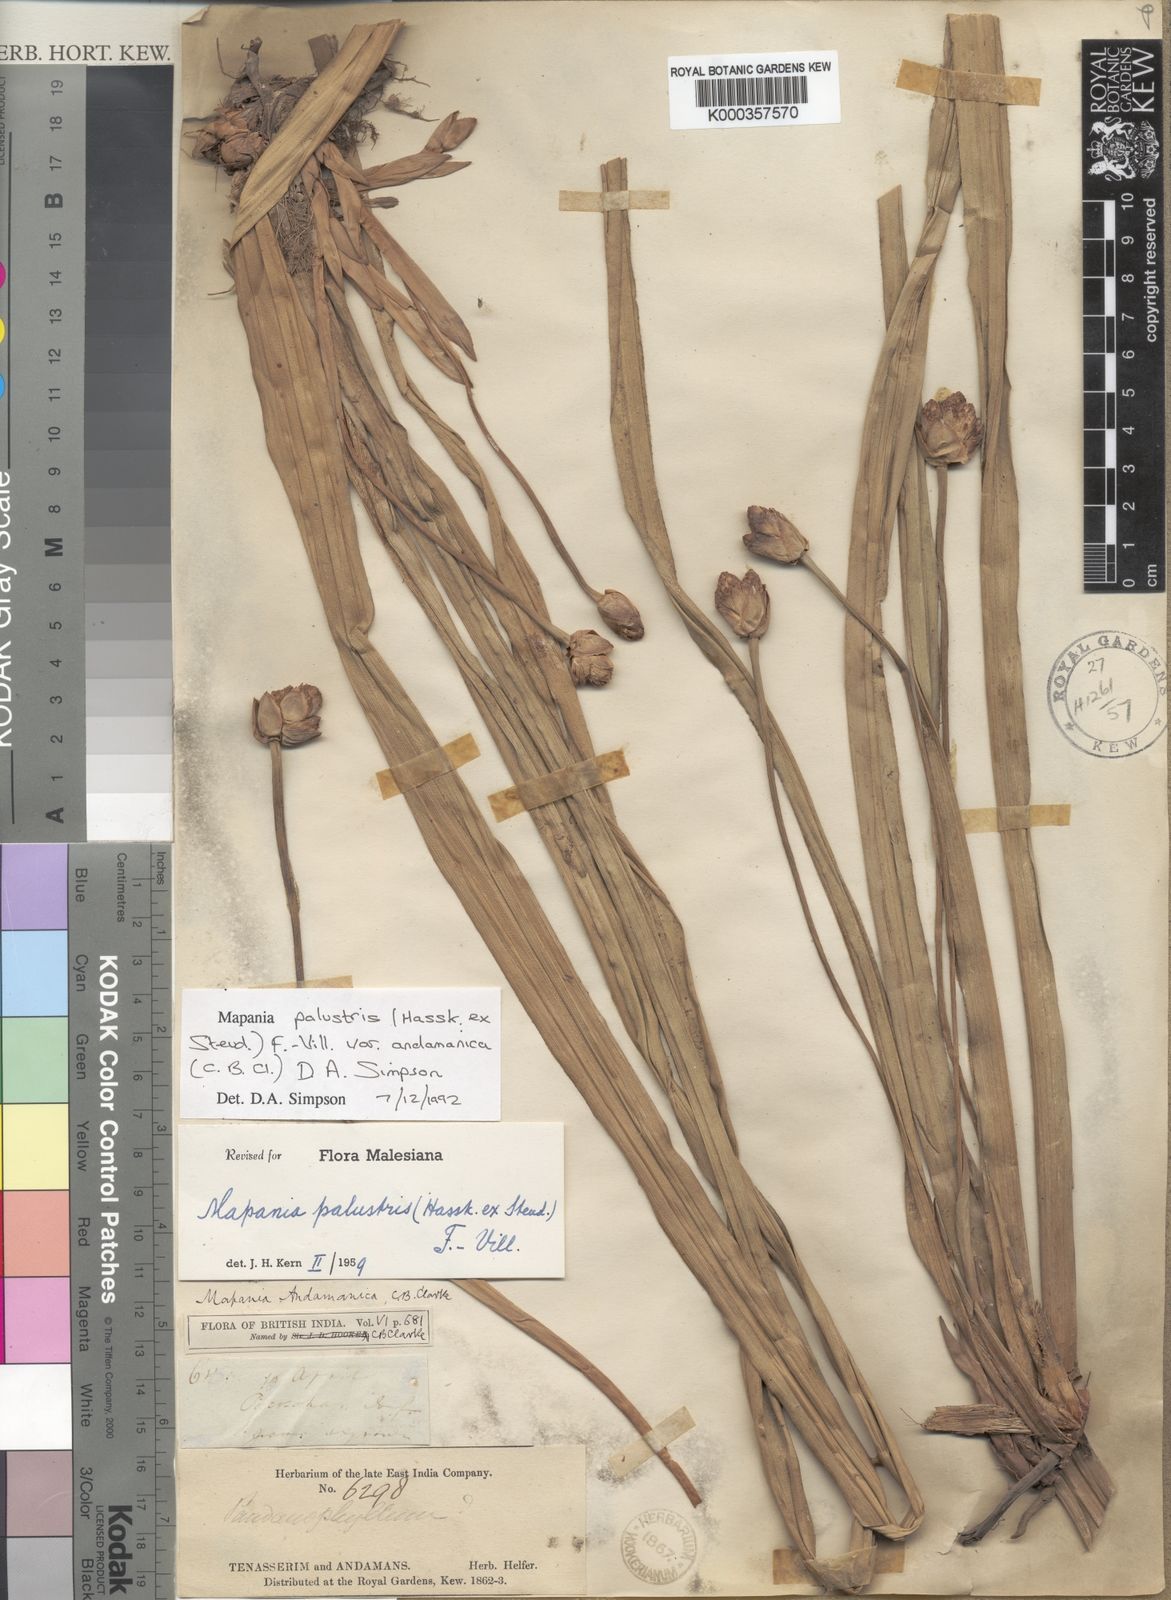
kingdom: Plantae
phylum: Tracheophyta
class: Liliopsida
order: Poales
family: Cyperaceae
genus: Mapania
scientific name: Mapania palustris
